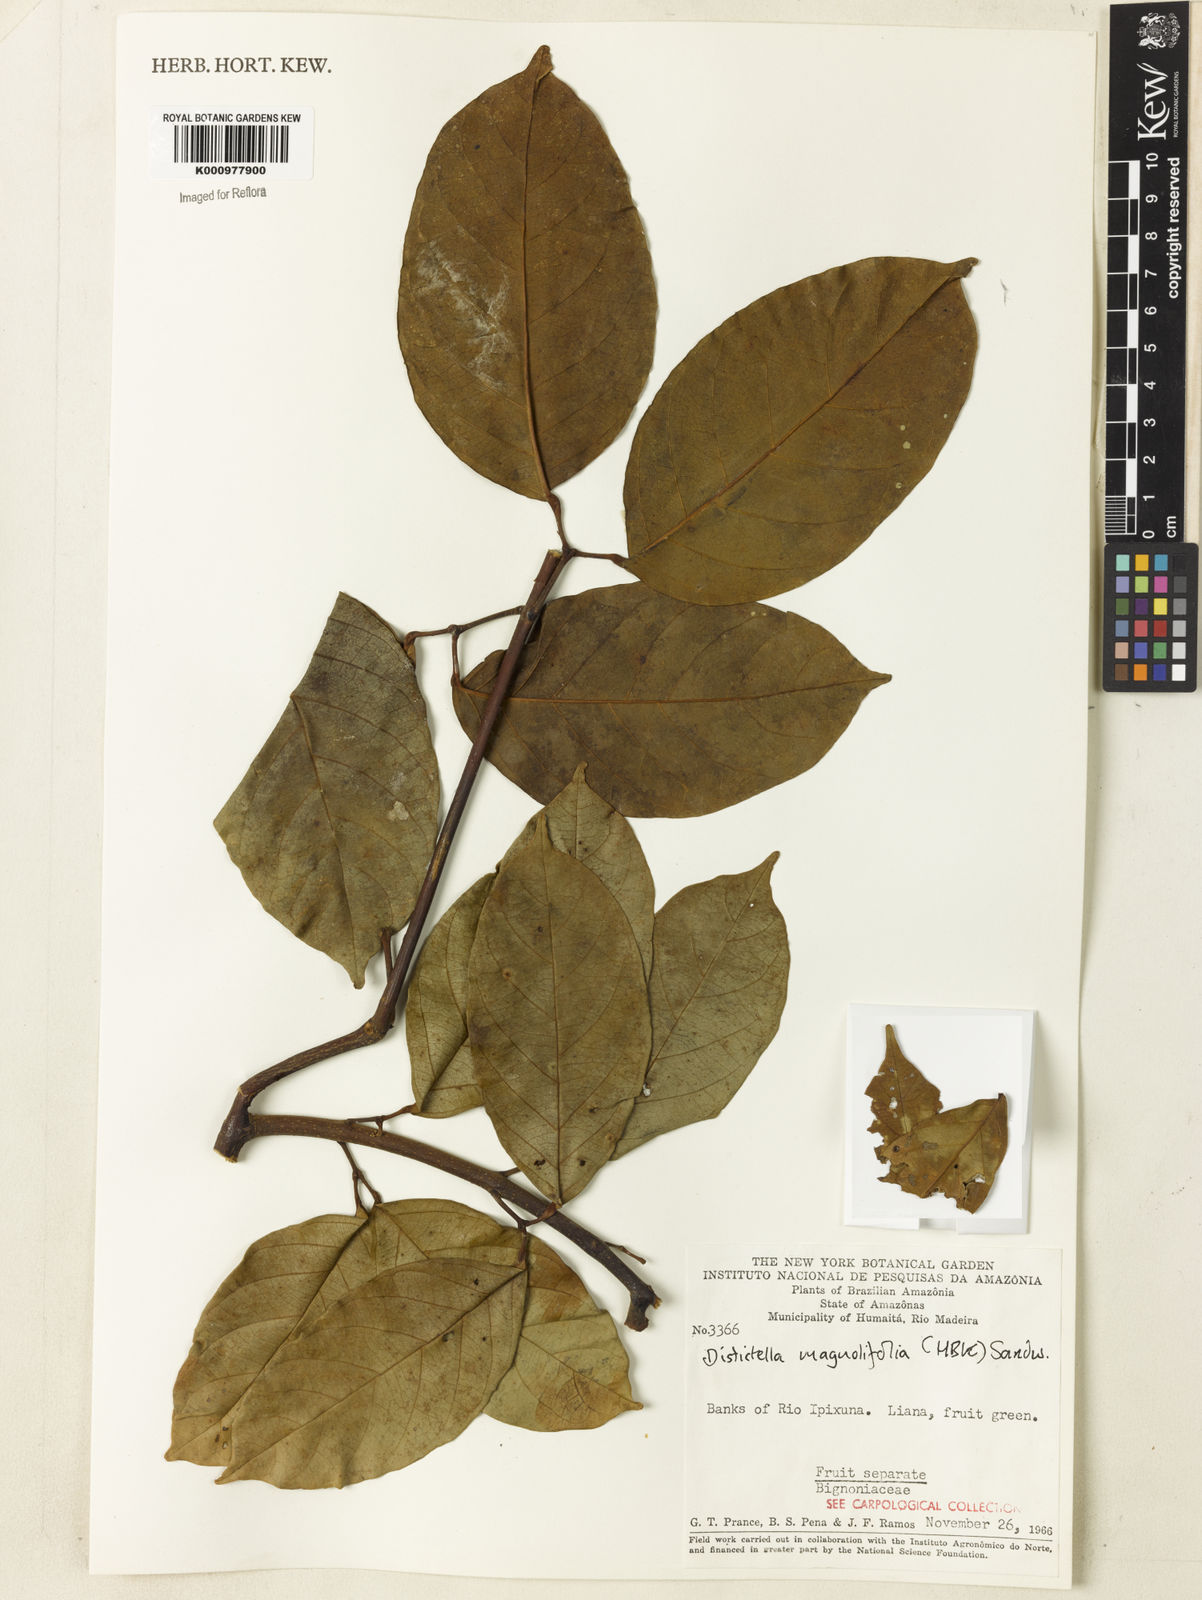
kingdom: Plantae
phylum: Tracheophyta
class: Magnoliopsida
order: Lamiales
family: Bignoniaceae
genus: Amphilophium
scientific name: Amphilophium
